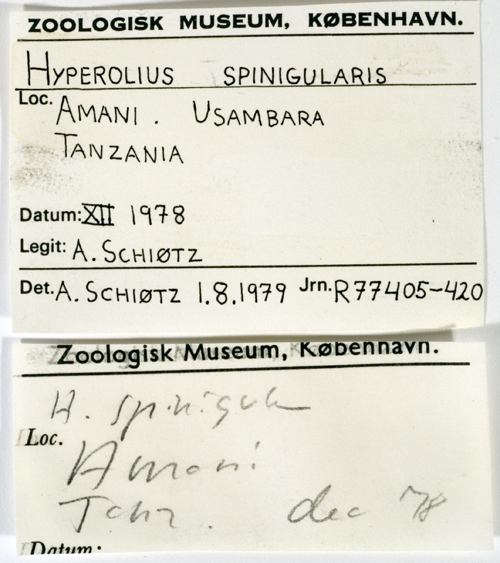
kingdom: Animalia
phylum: Chordata
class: Amphibia
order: Anura
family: Hyperoliidae
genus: Hyperolius
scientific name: Hyperolius spinigularis
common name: Spiny reed frog
